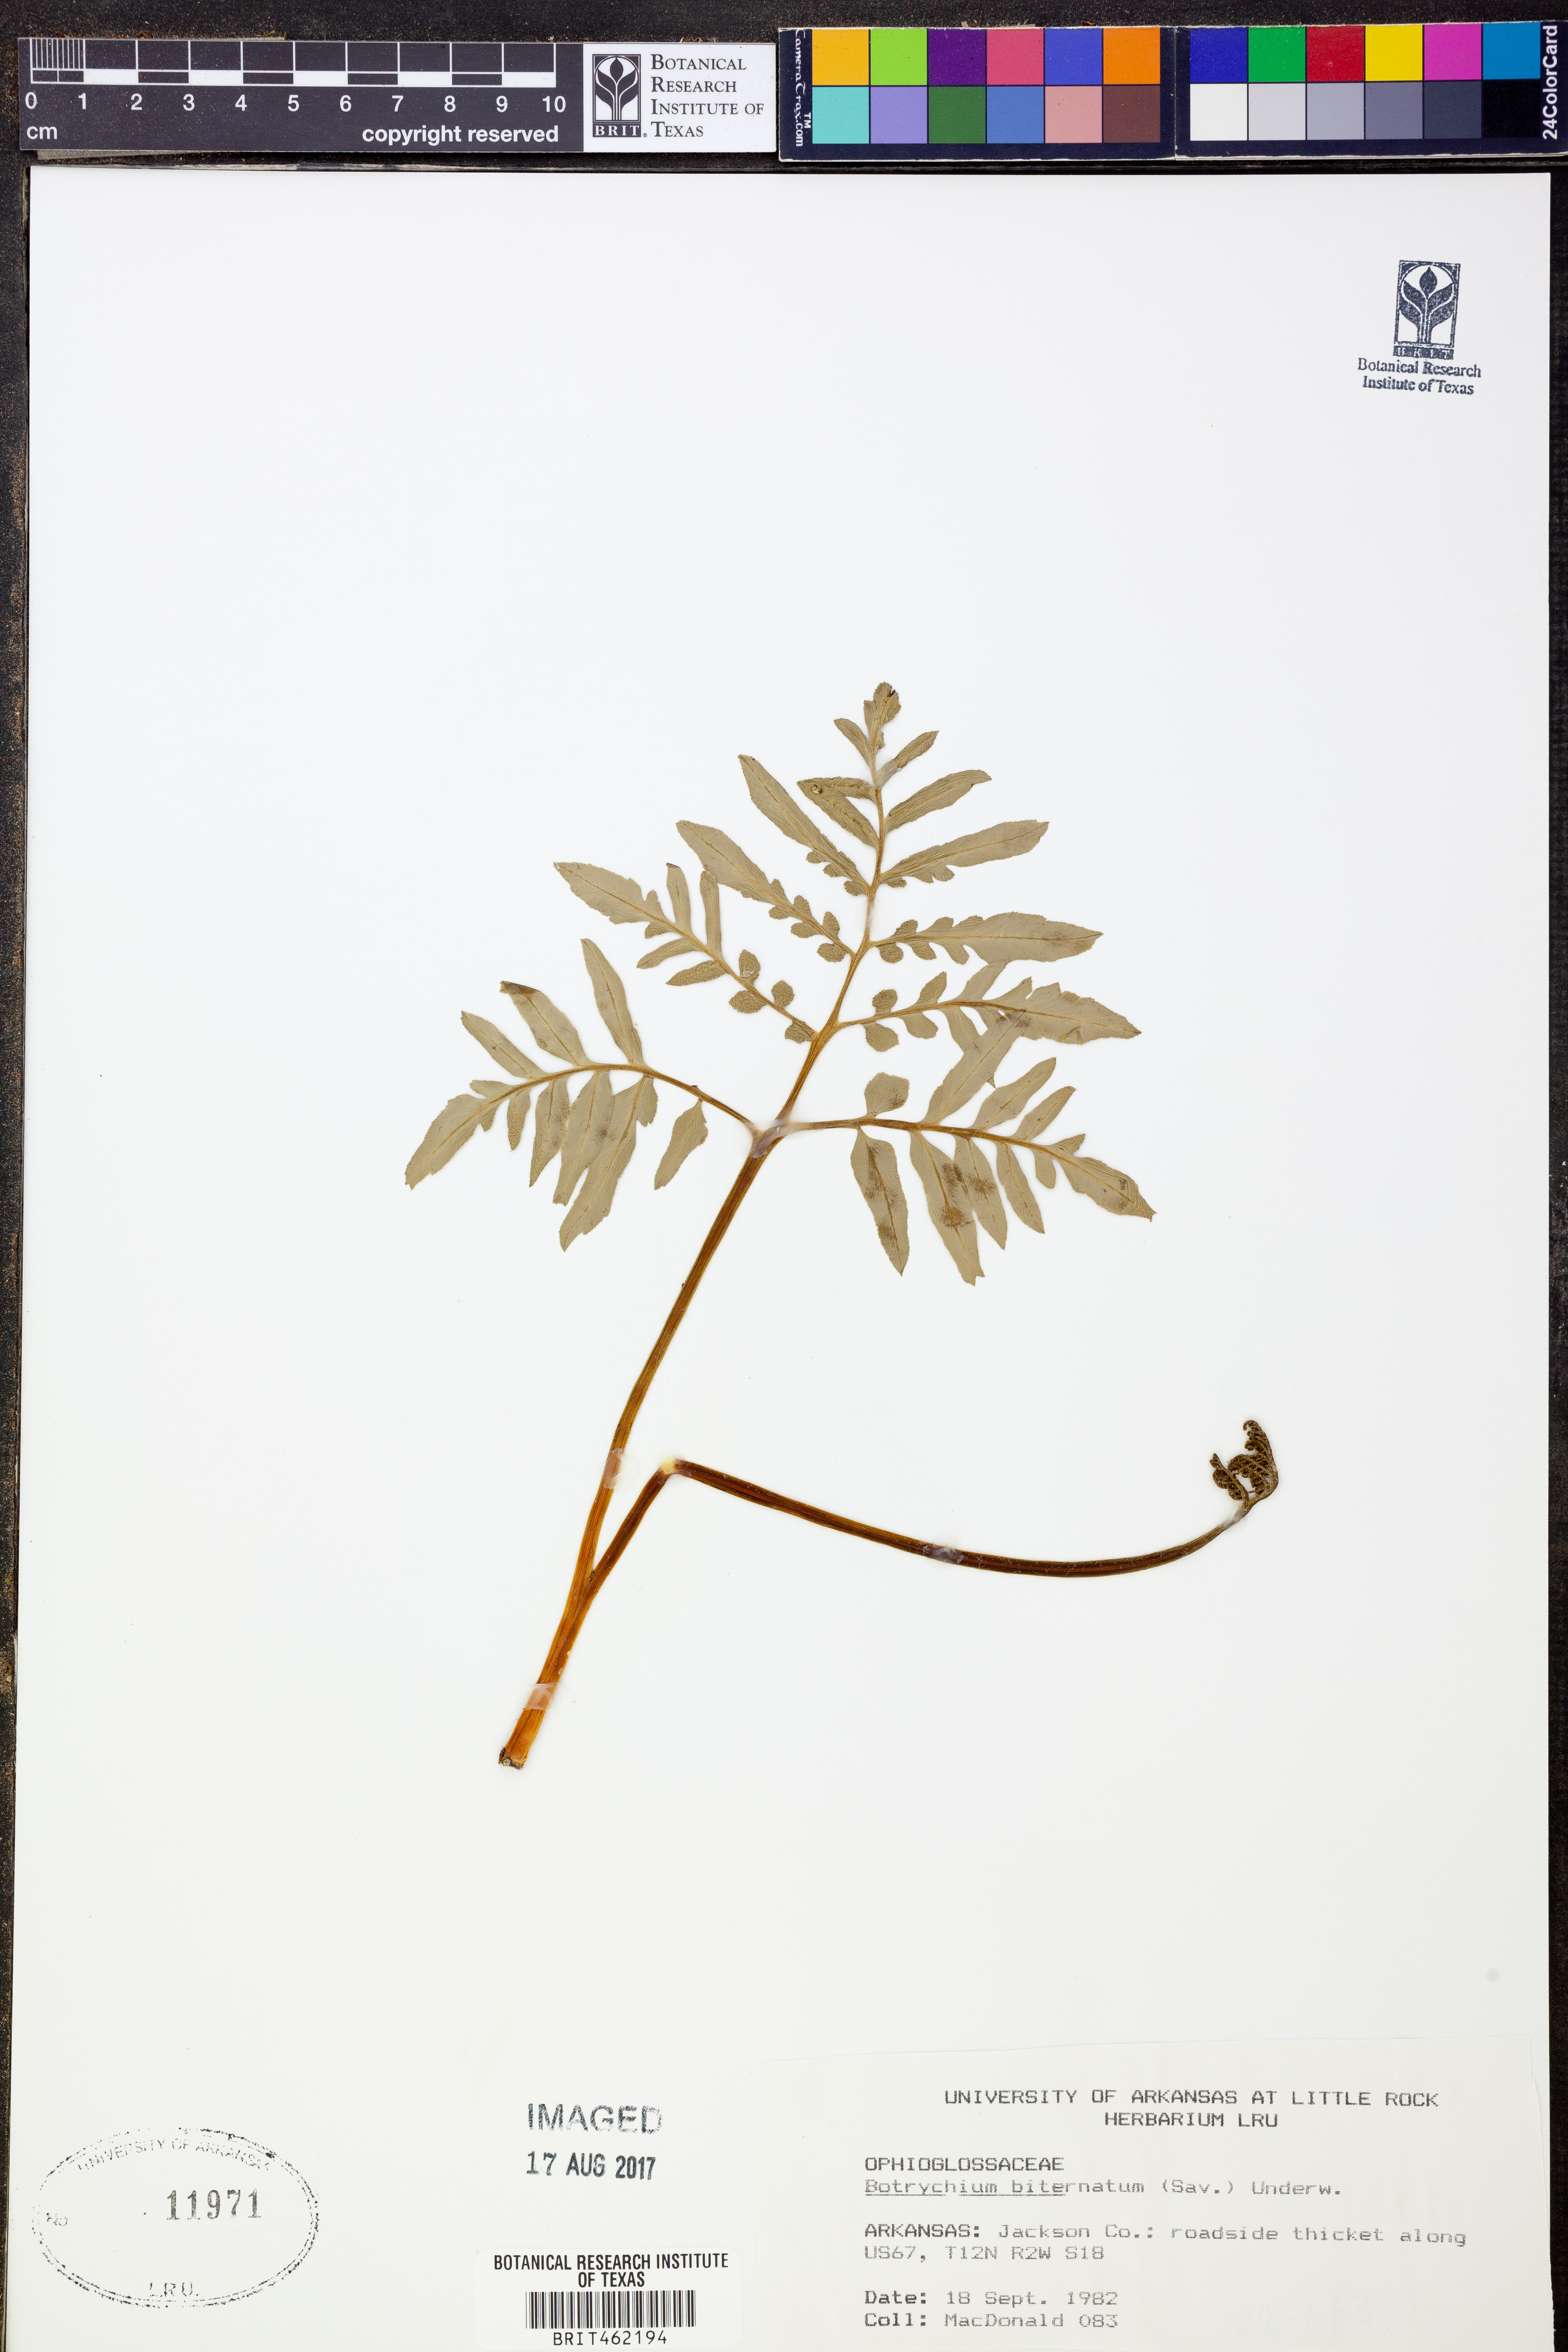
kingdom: Plantae
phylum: Tracheophyta
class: Polypodiopsida
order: Ophioglossales
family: Ophioglossaceae
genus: Sceptridium
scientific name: Sceptridium biternatum
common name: Sparse-lobed grapefern
